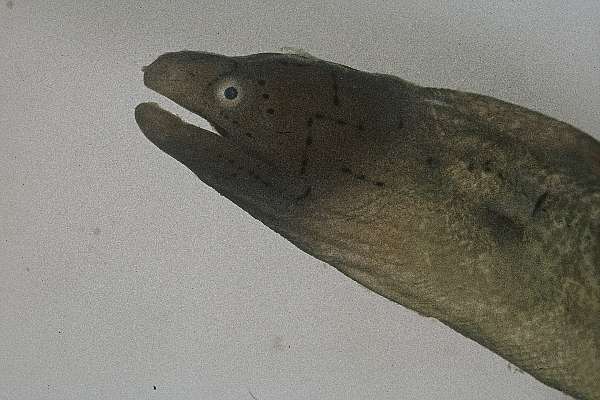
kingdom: Animalia
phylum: Chordata
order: Anguilliformes
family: Muraenidae
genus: Gymnothorax
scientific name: Gymnothorax griseus
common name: Geometric moray
